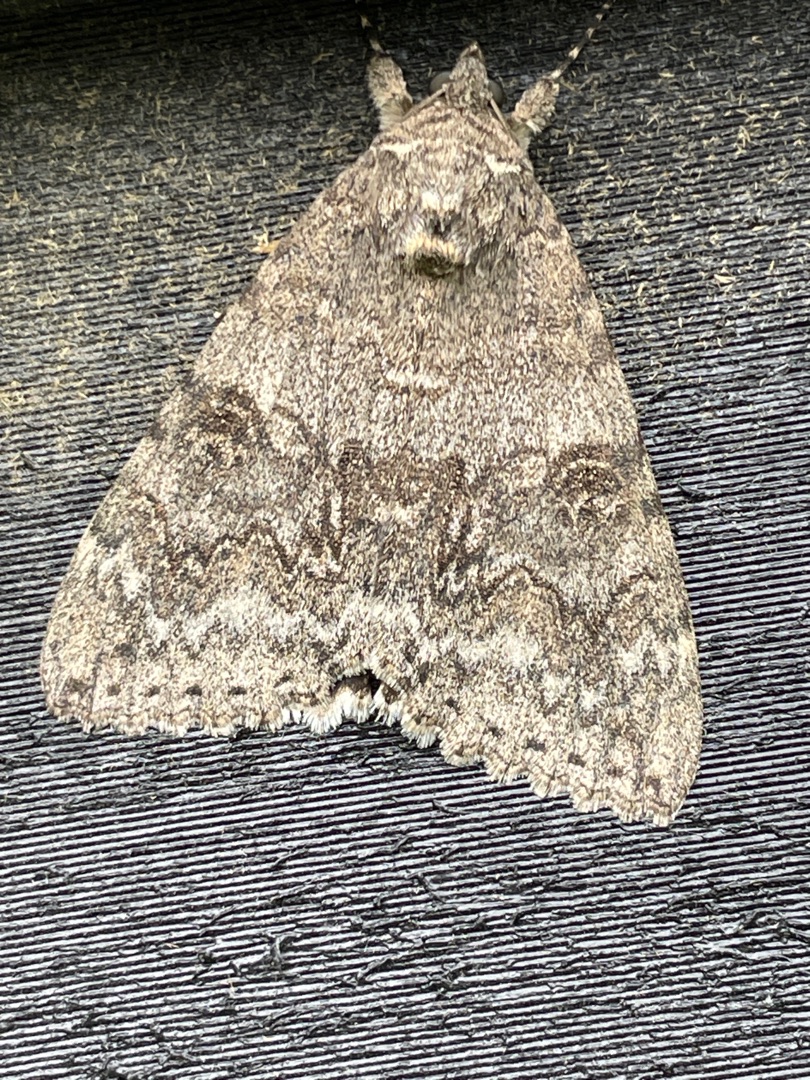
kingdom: Animalia
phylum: Arthropoda
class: Insecta
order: Lepidoptera
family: Erebidae
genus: Catocala
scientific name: Catocala nupta
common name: Rødt ordensbånd
